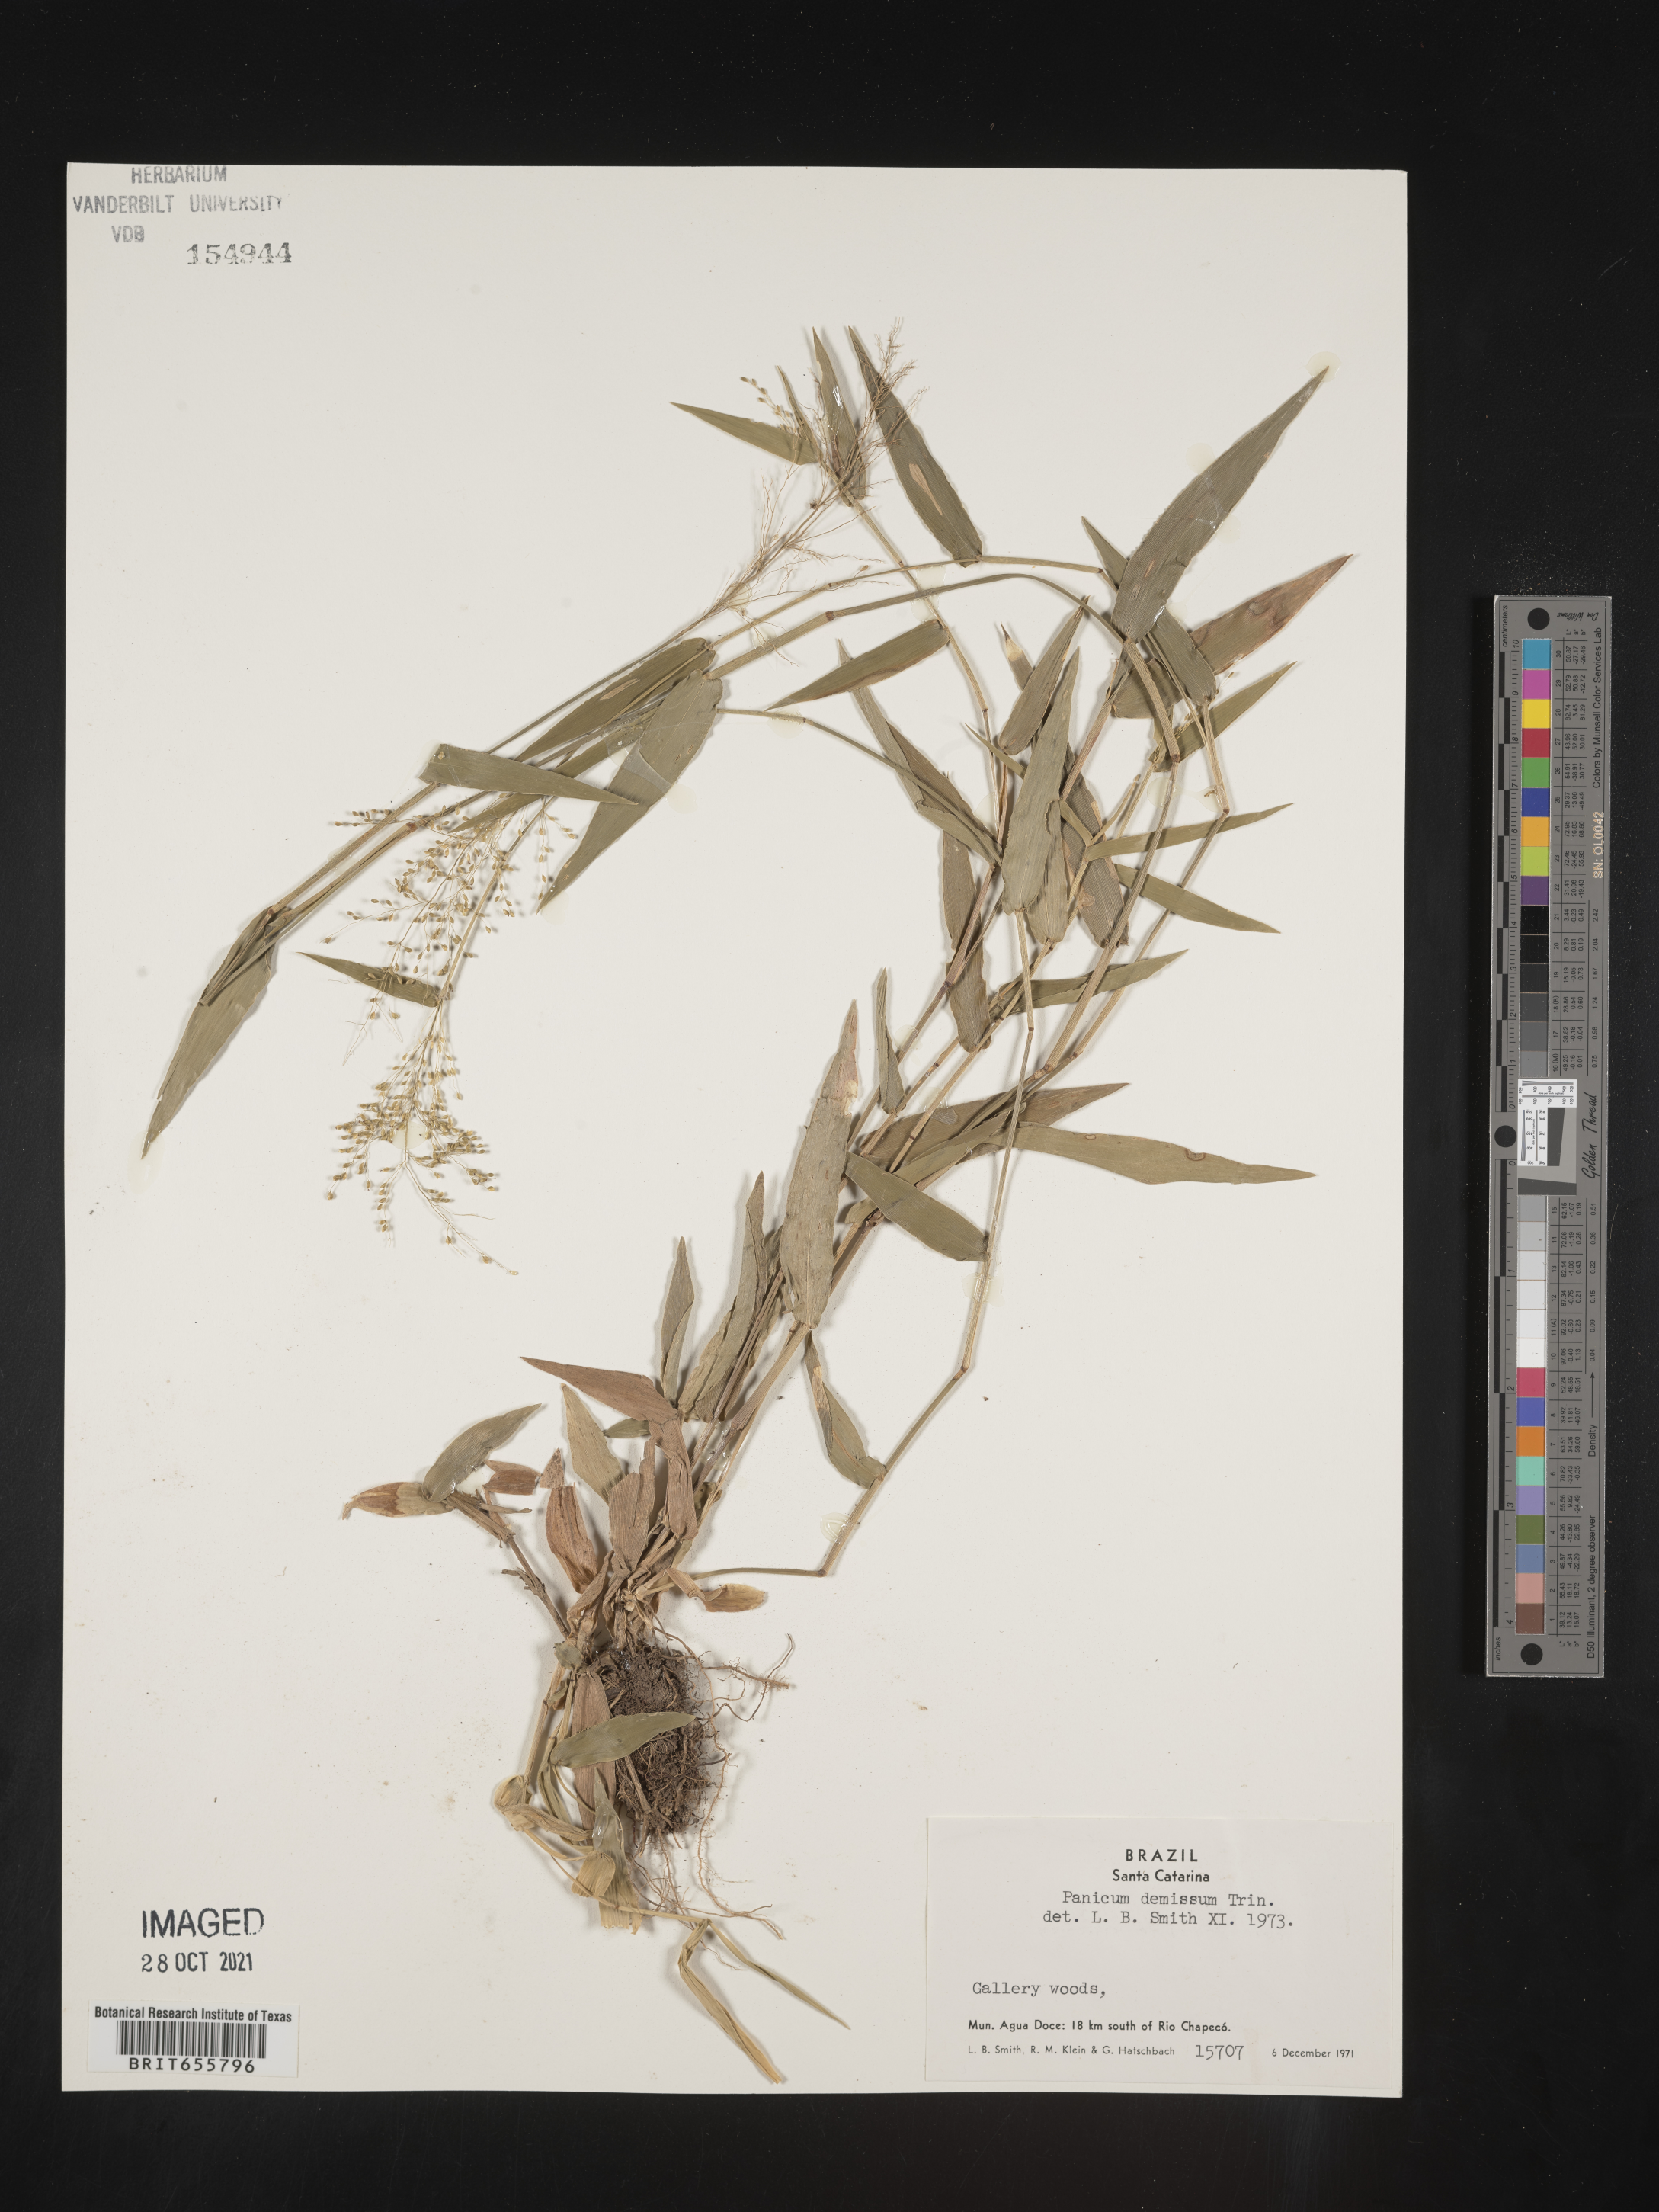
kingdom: Plantae
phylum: Tracheophyta
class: Liliopsida
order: Poales
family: Poaceae
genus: Panicum
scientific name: Panicum
